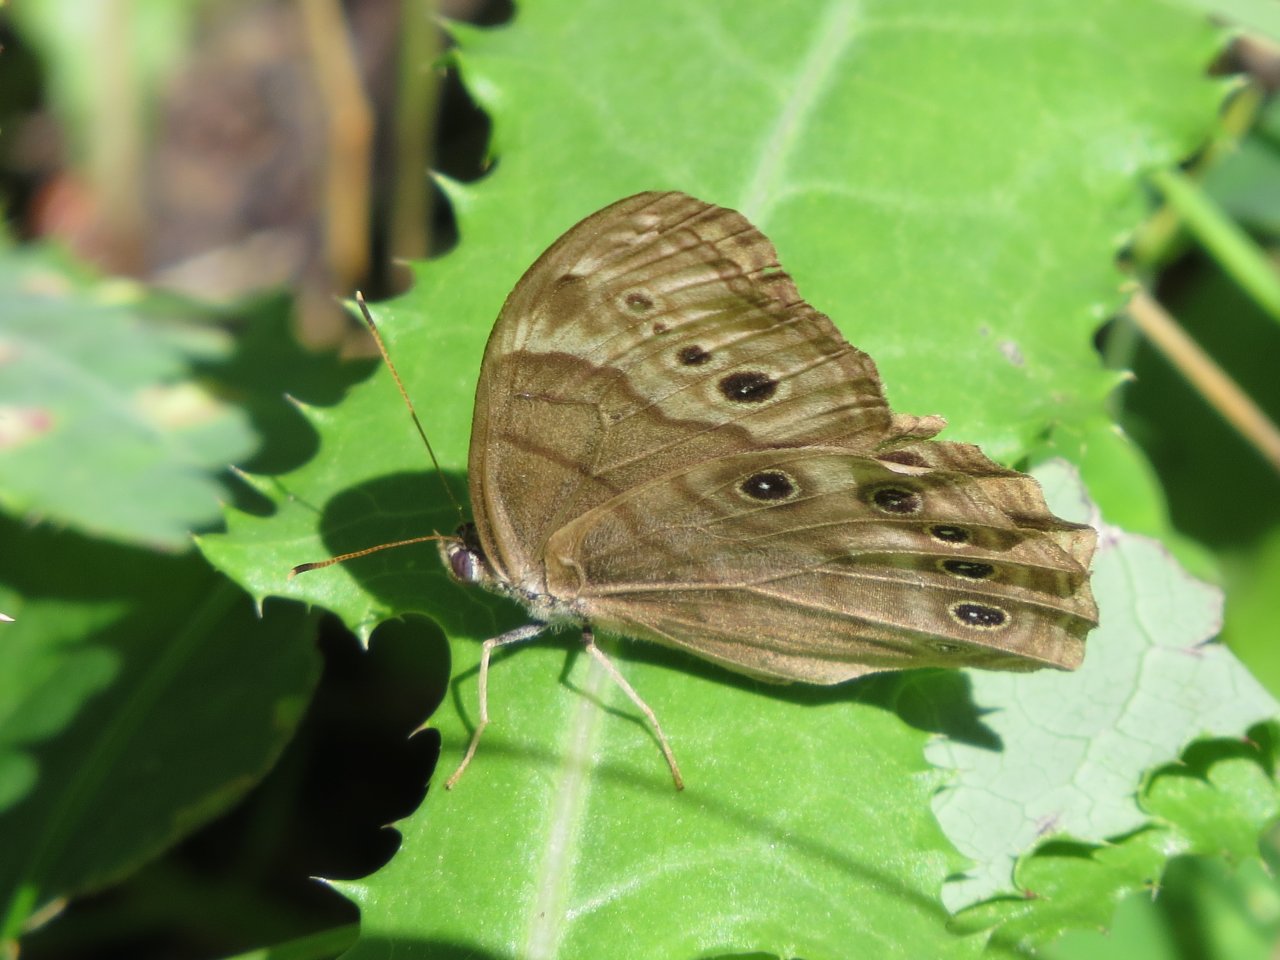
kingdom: Animalia
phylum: Arthropoda
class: Insecta
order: Lepidoptera
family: Nymphalidae
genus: Lethe
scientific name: Lethe anthedon
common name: Northern Pearly-Eye
